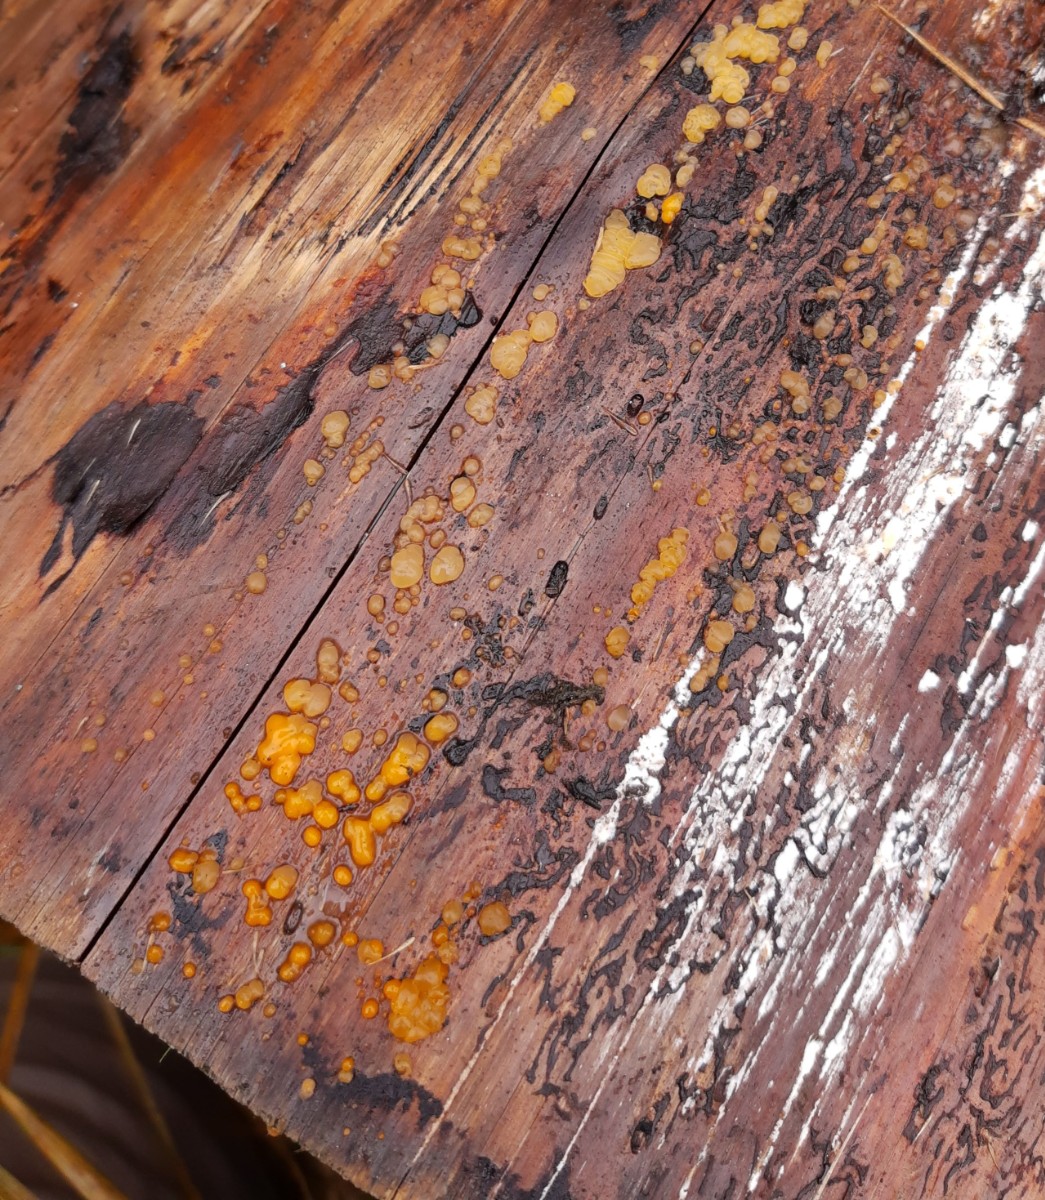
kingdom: Fungi
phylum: Basidiomycota
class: Dacrymycetes
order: Dacrymycetales
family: Dacrymycetaceae
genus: Dacrymyces
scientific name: Dacrymyces stillatus
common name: almindelig tåresvamp
